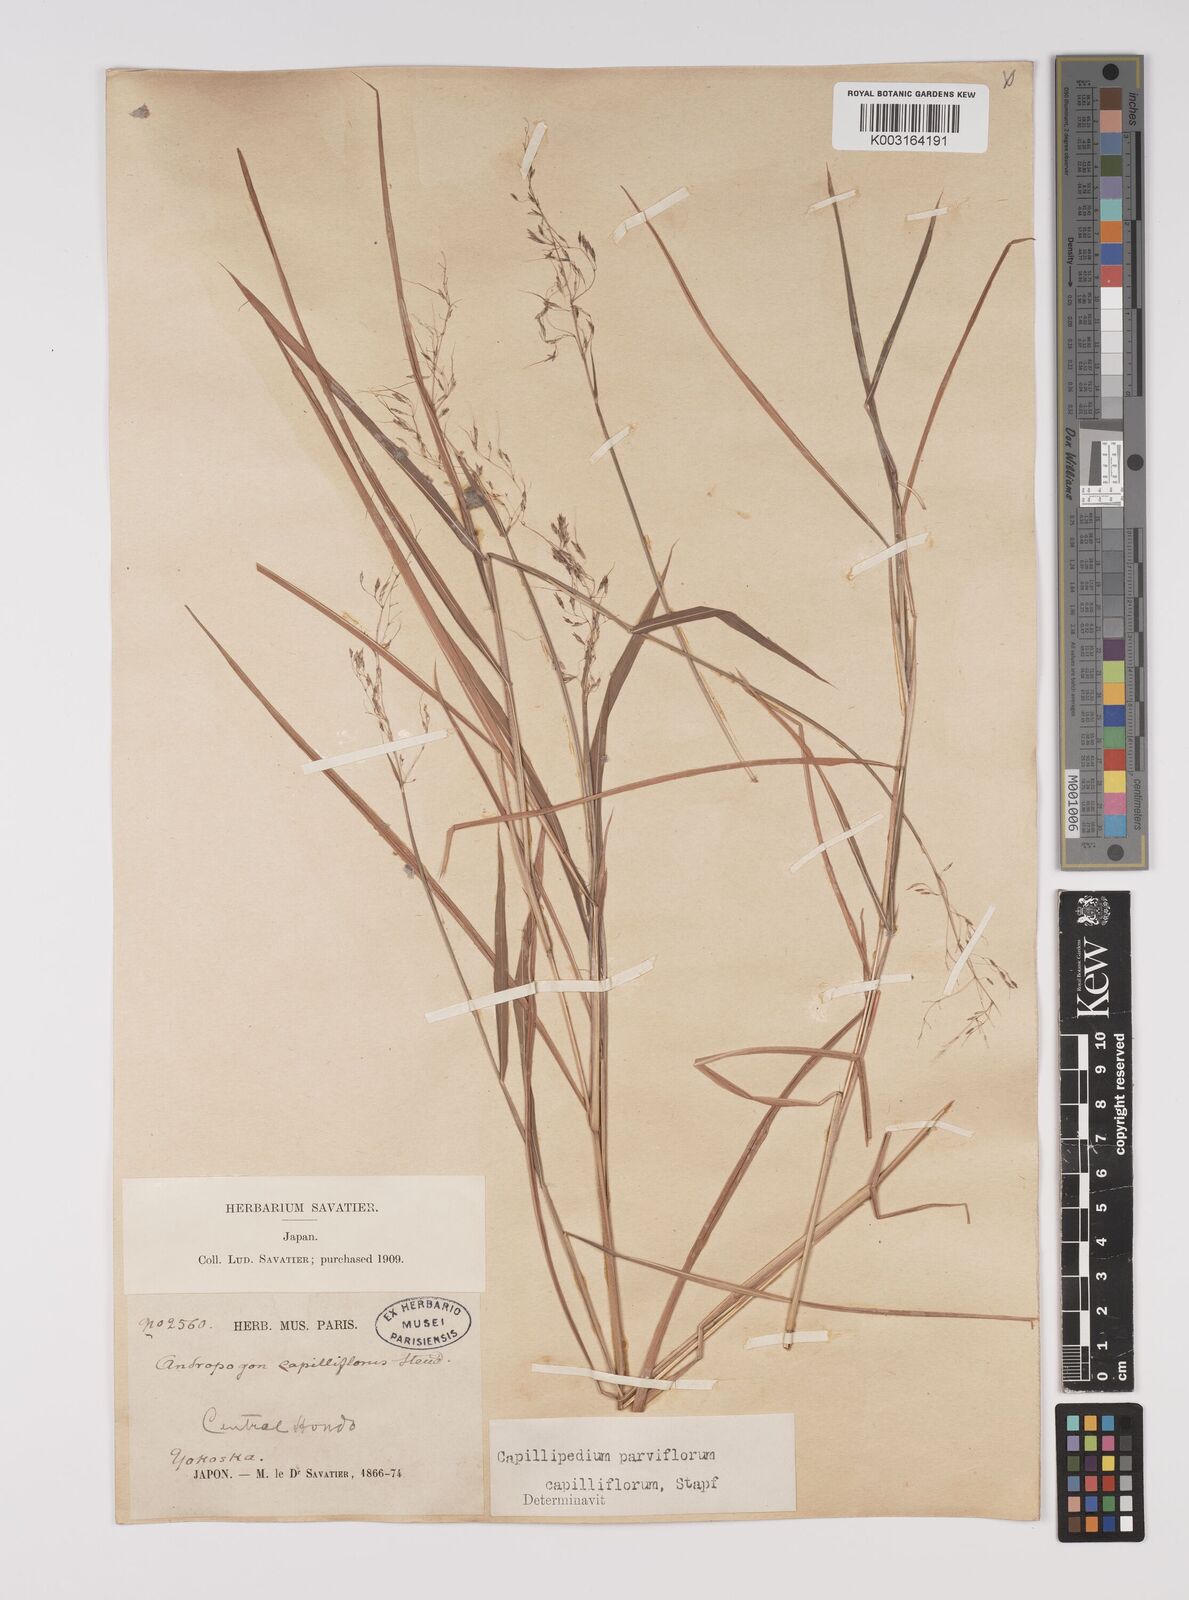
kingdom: Plantae
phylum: Tracheophyta
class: Liliopsida
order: Poales
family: Poaceae
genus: Capillipedium
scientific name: Capillipedium parviflorum
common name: Golden-beard
